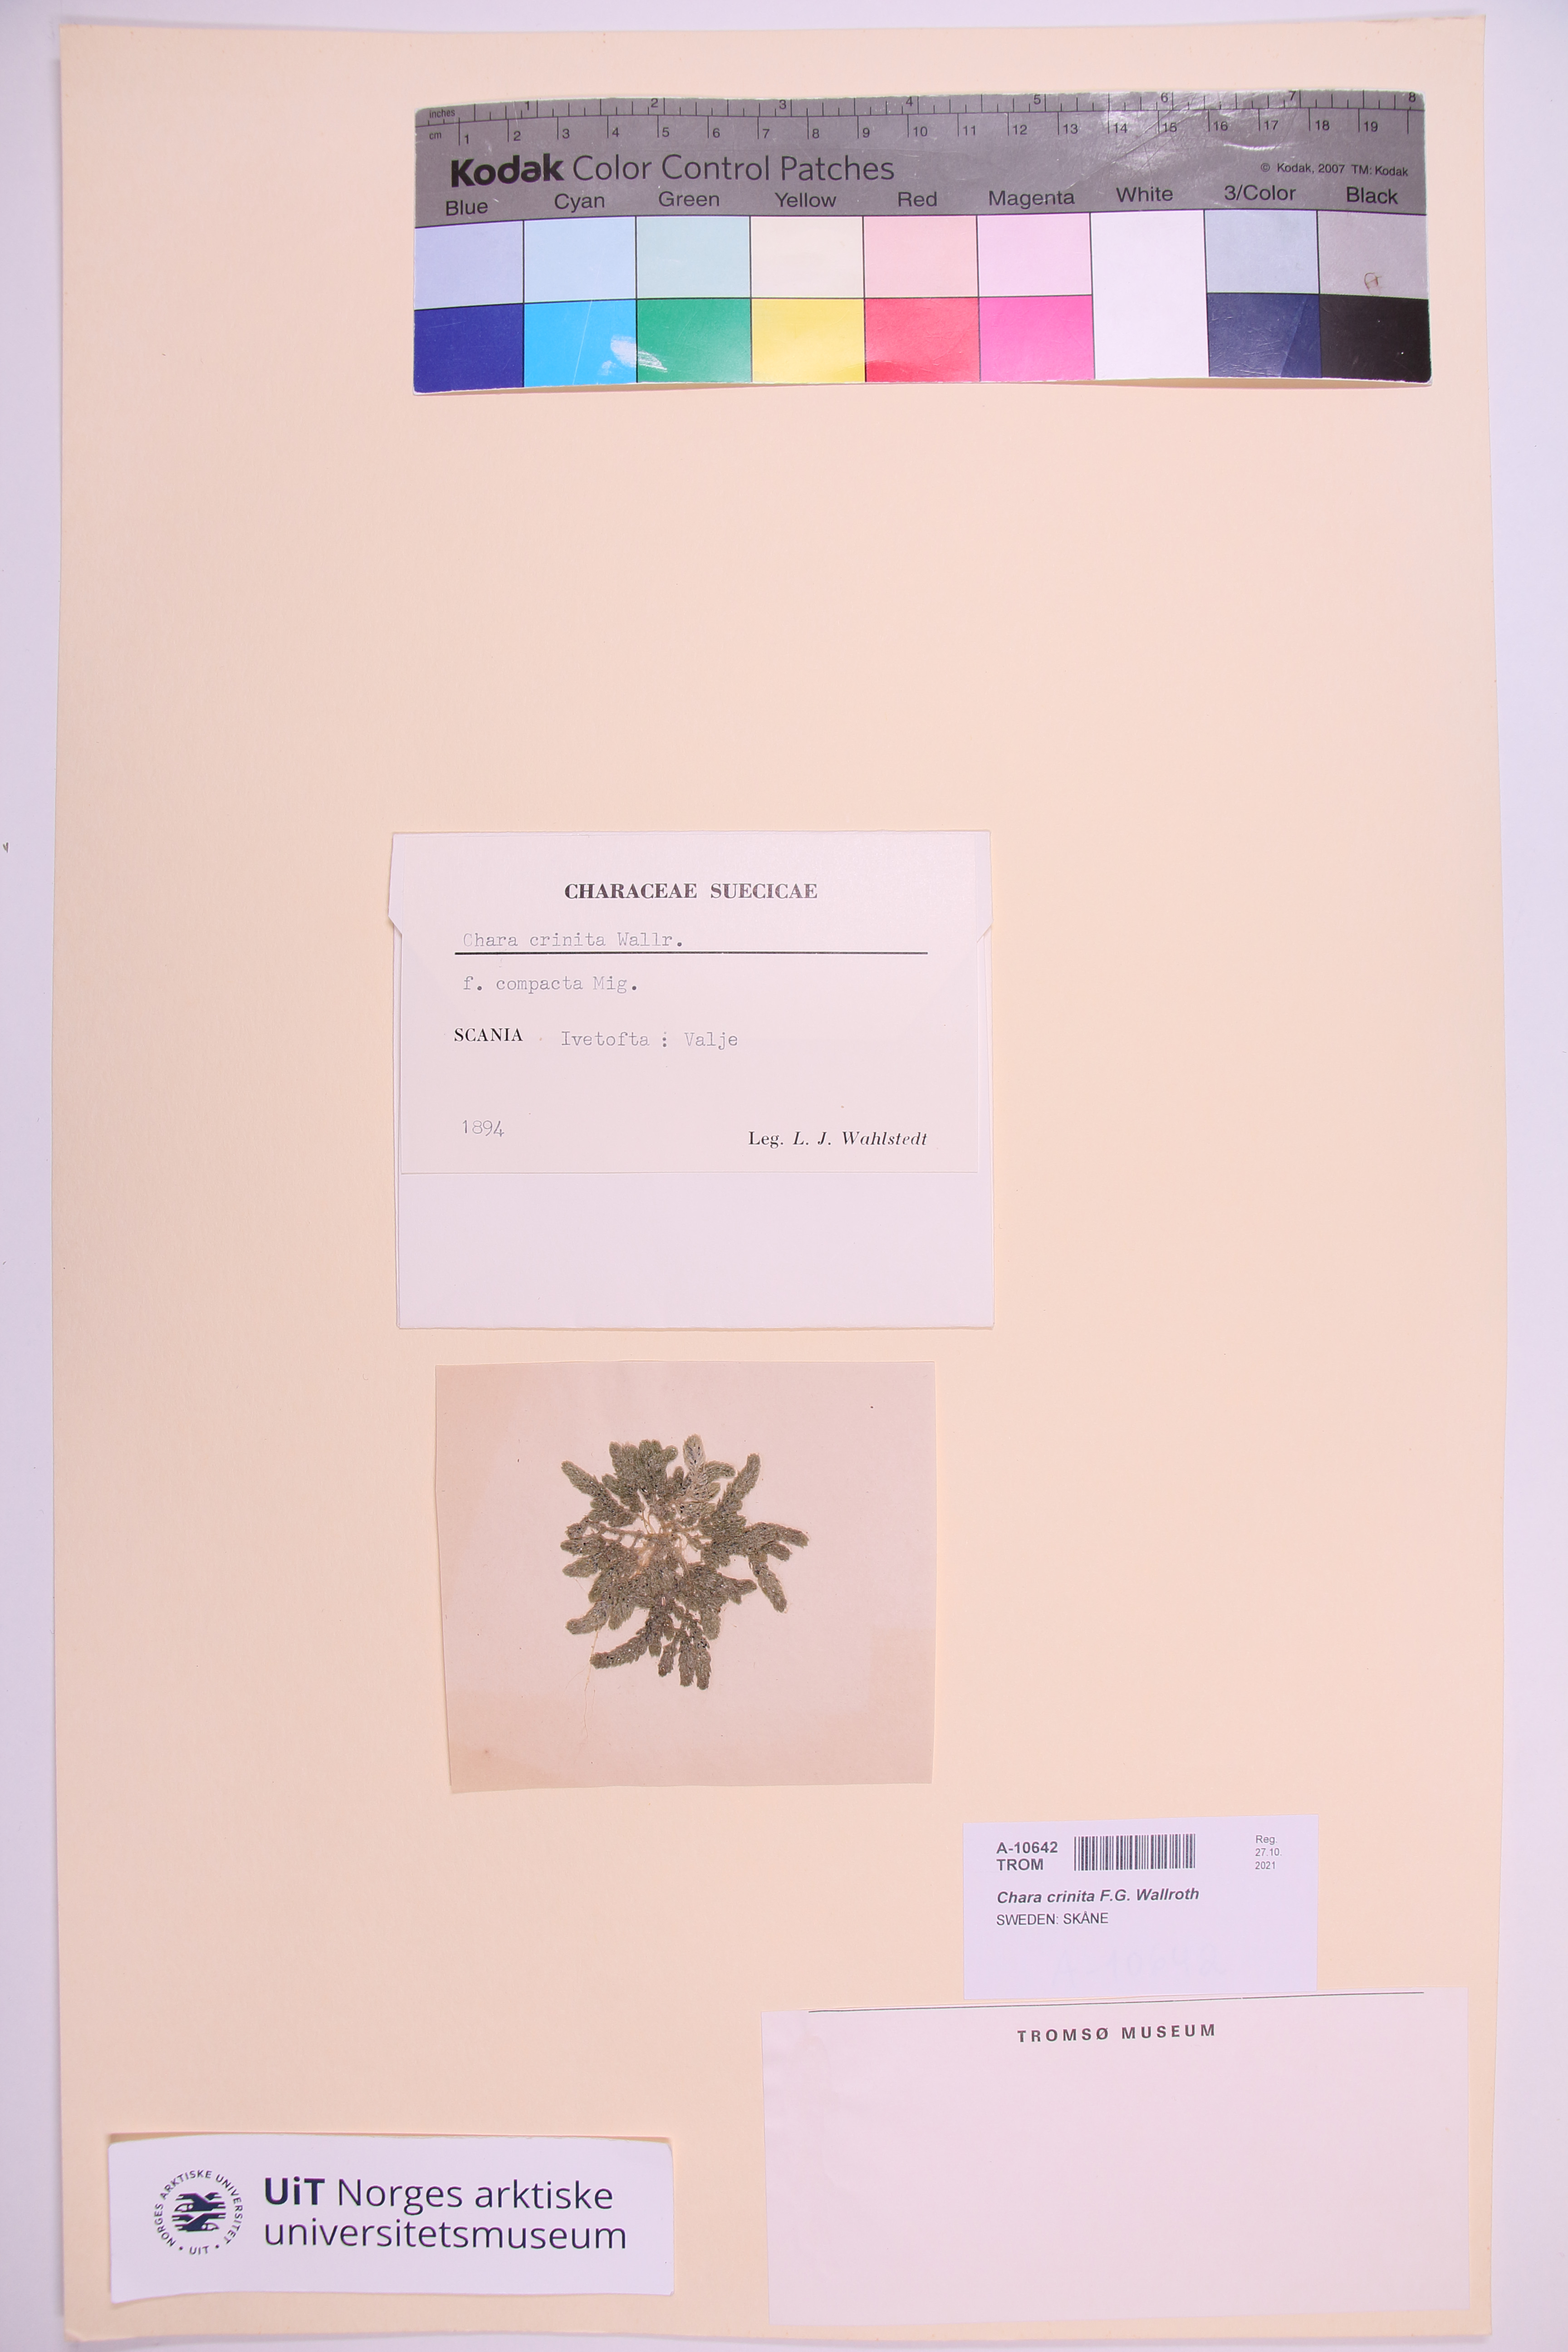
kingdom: Plantae
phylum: Charophyta
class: Charophyceae
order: Charales
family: Characeae
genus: Chara
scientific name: Chara canescens
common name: Bearded stonewort
